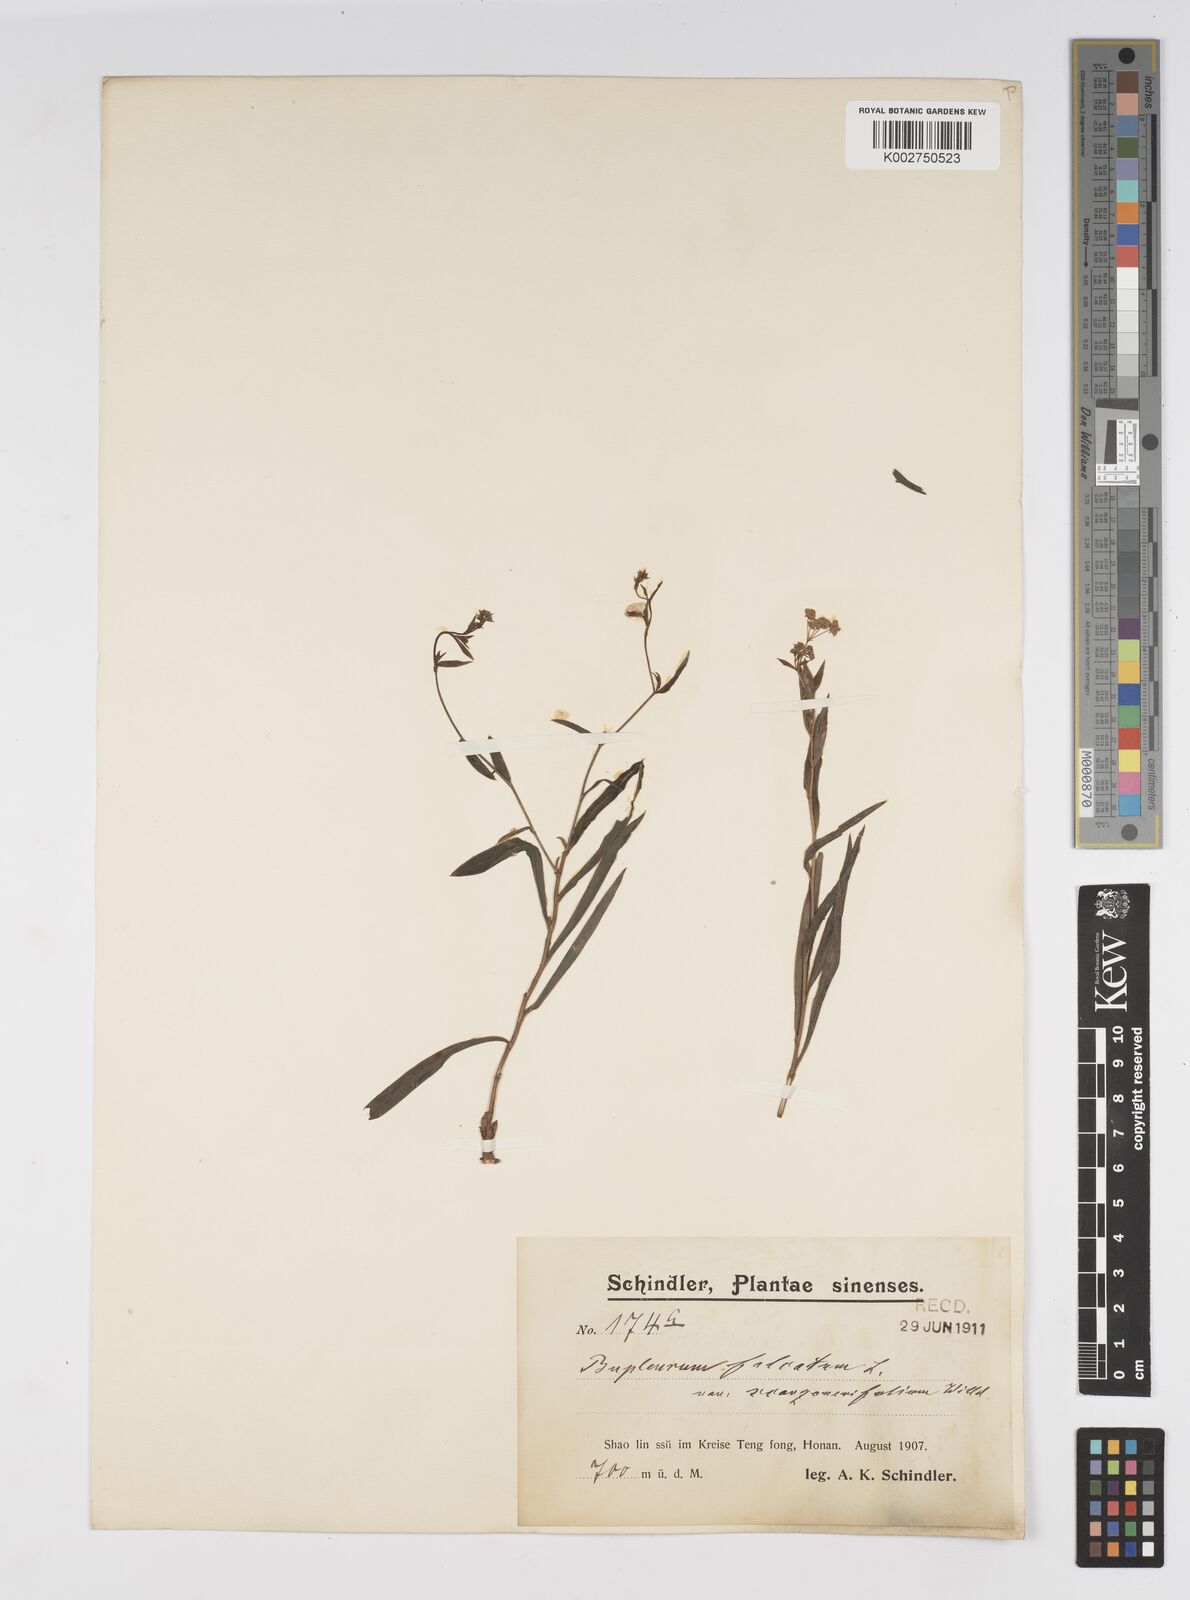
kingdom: Plantae
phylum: Tracheophyta
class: Magnoliopsida
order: Apiales
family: Apiaceae
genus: Bupleurum
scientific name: Bupleurum scorzonerifolium
